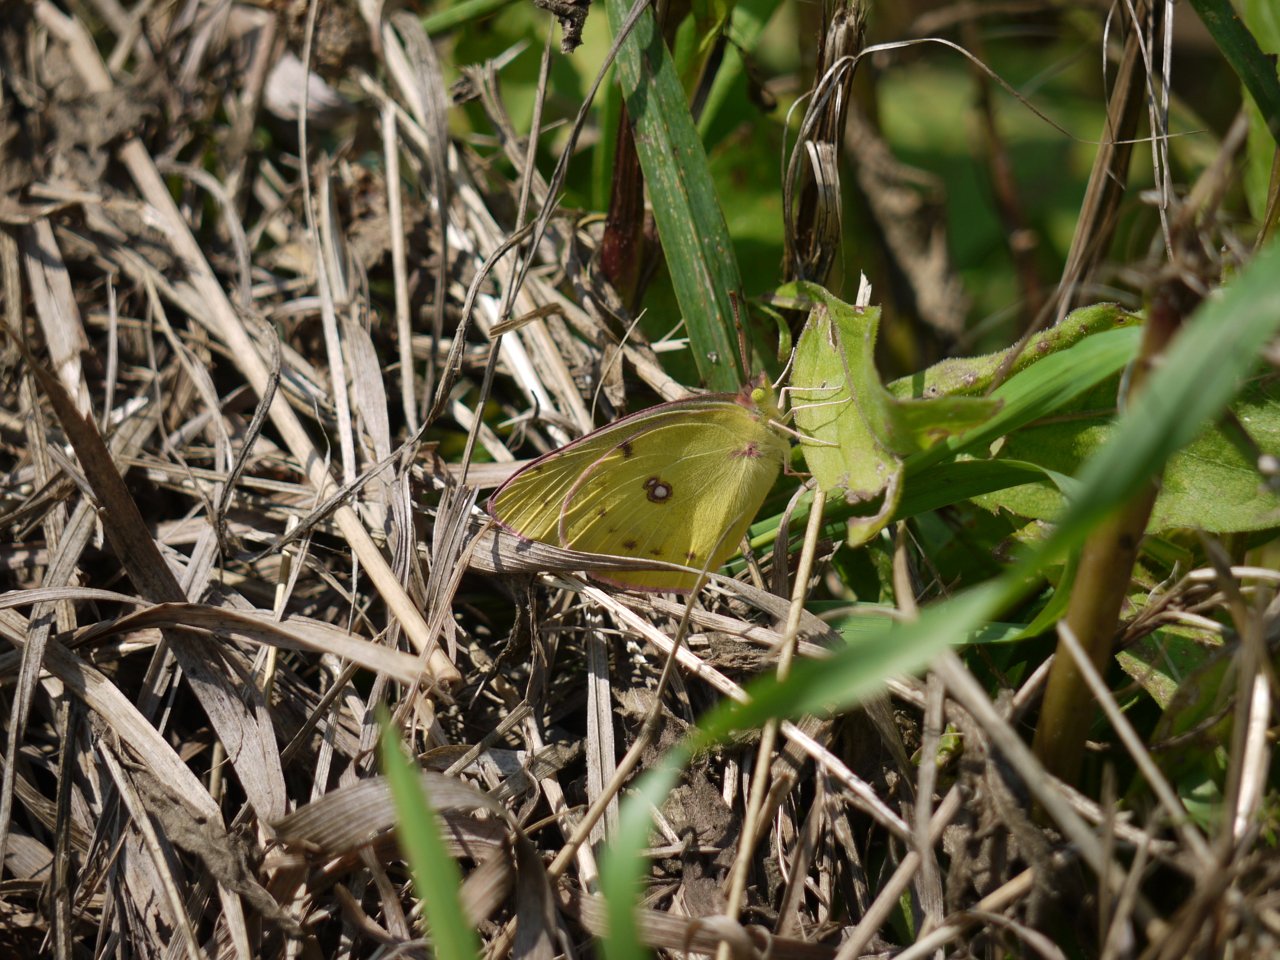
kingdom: Animalia
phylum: Arthropoda
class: Insecta
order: Lepidoptera
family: Pieridae
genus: Colias
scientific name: Colias philodice
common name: Clouded Sulphur
